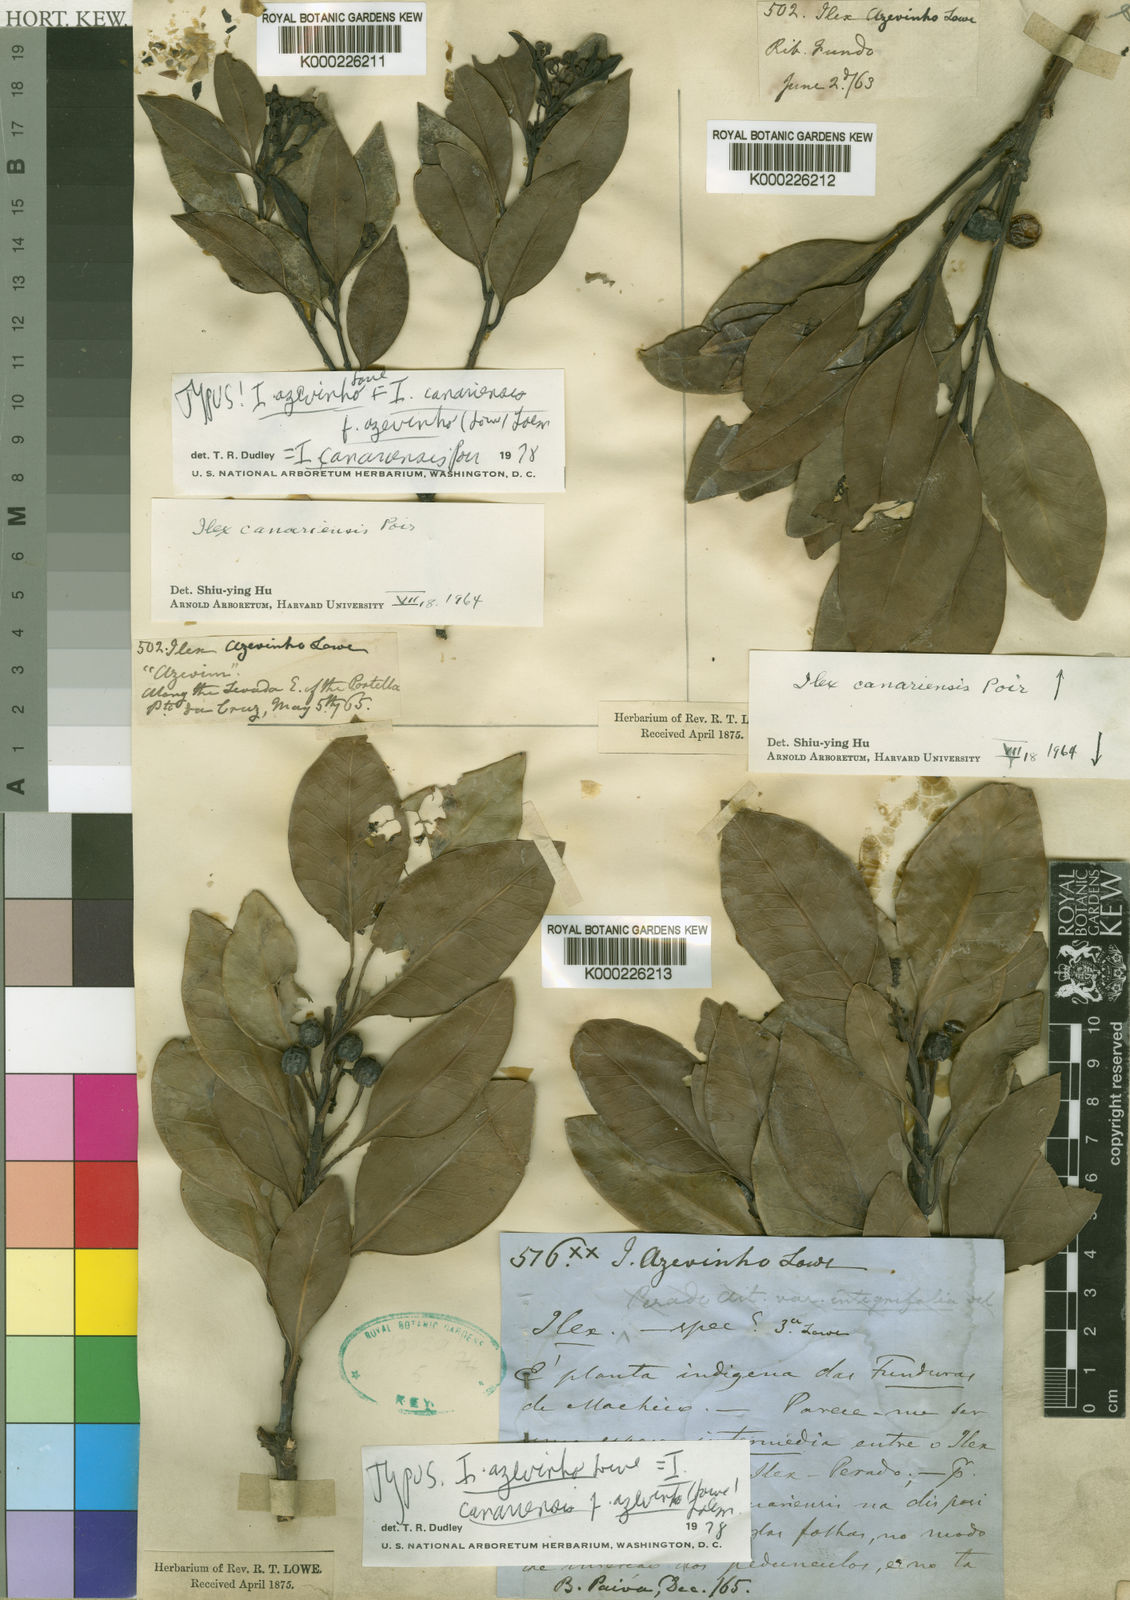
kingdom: Plantae
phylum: Tracheophyta
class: Magnoliopsida
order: Aquifoliales
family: Aquifoliaceae
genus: Ilex
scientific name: Ilex canariensis
